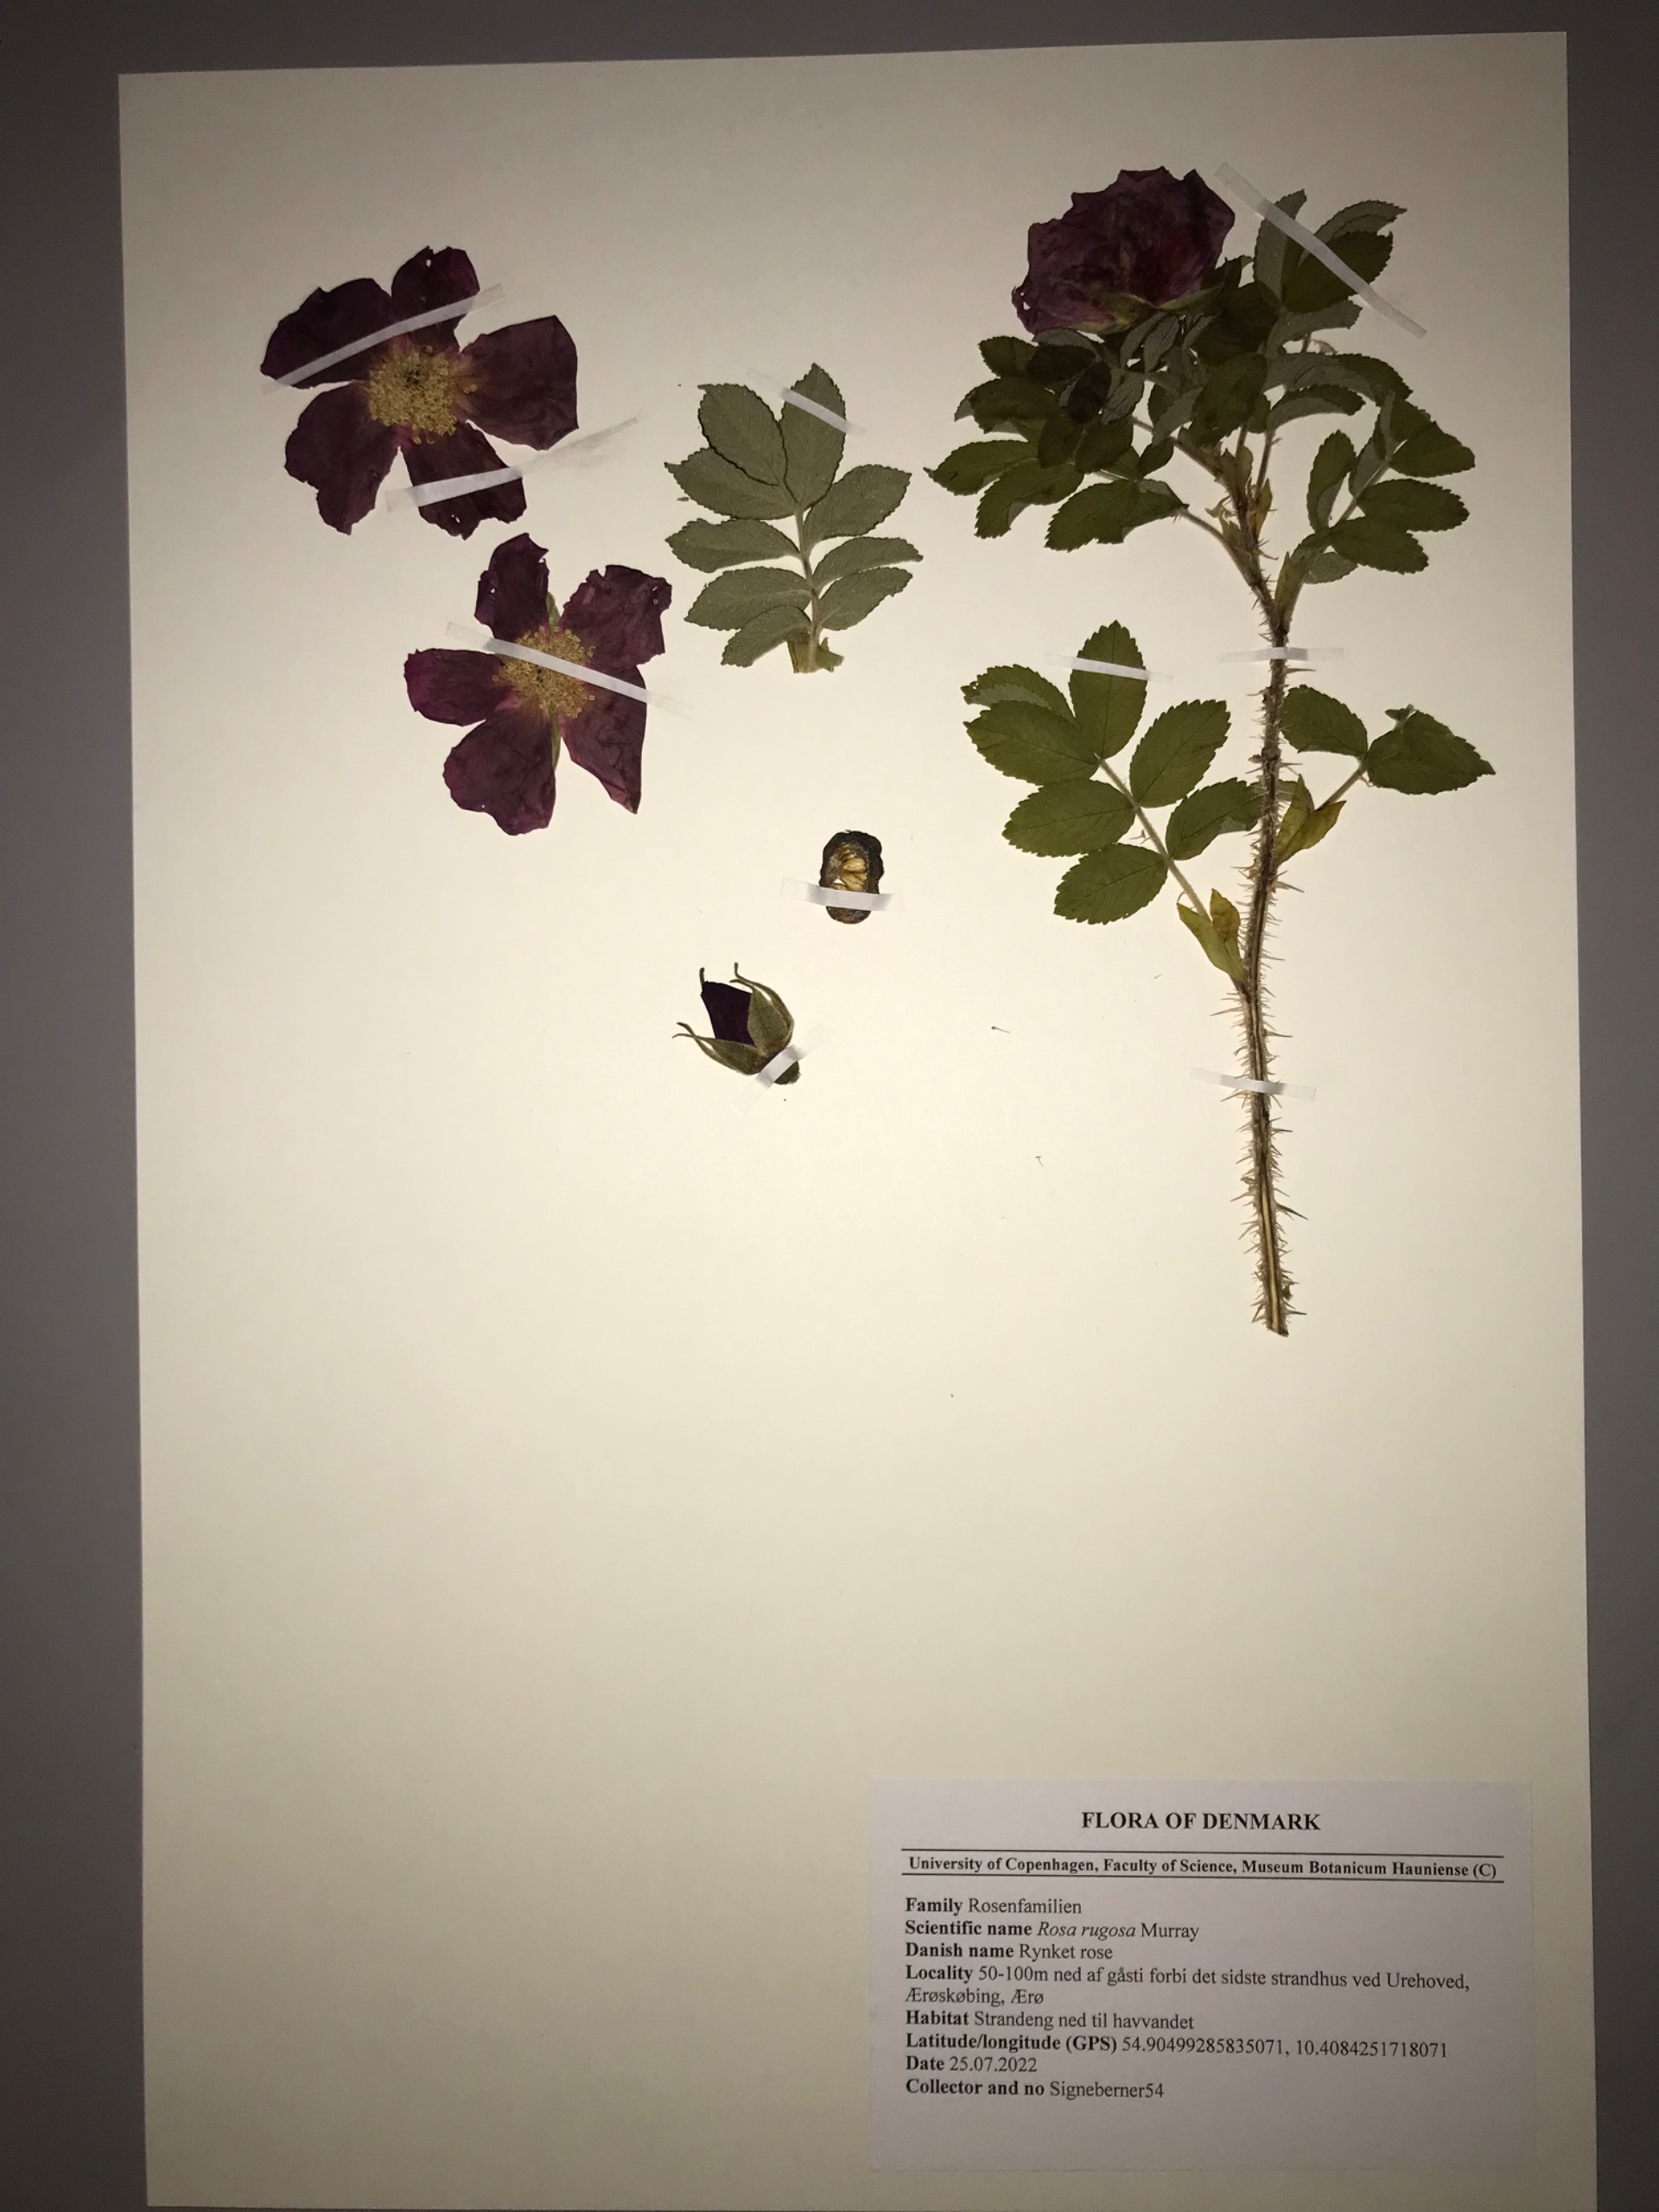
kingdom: Plantae
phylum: Tracheophyta
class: Magnoliopsida
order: Rosales
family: Rosaceae
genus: Rosa
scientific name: Rosa rugosa
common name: Rynket rose
